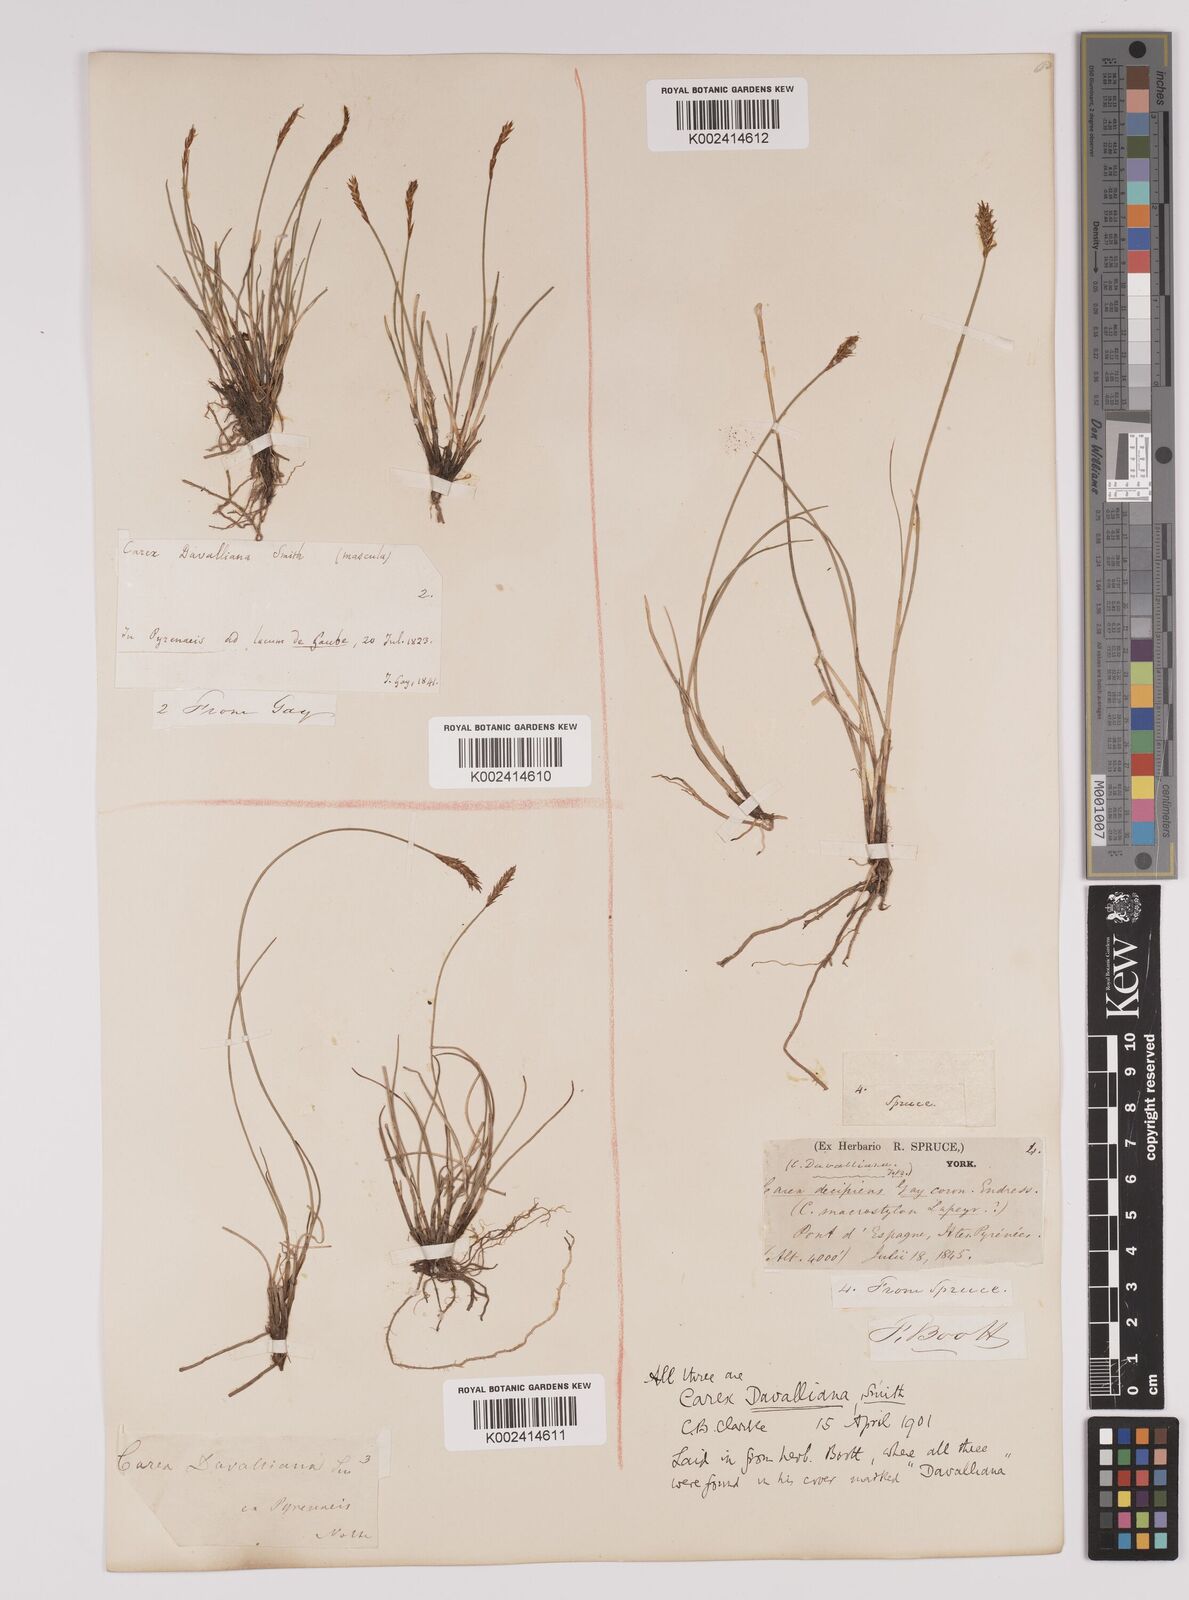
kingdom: Plantae
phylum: Tracheophyta
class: Liliopsida
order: Poales
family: Cyperaceae
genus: Carex
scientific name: Carex davalliana
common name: Davall's sedge
